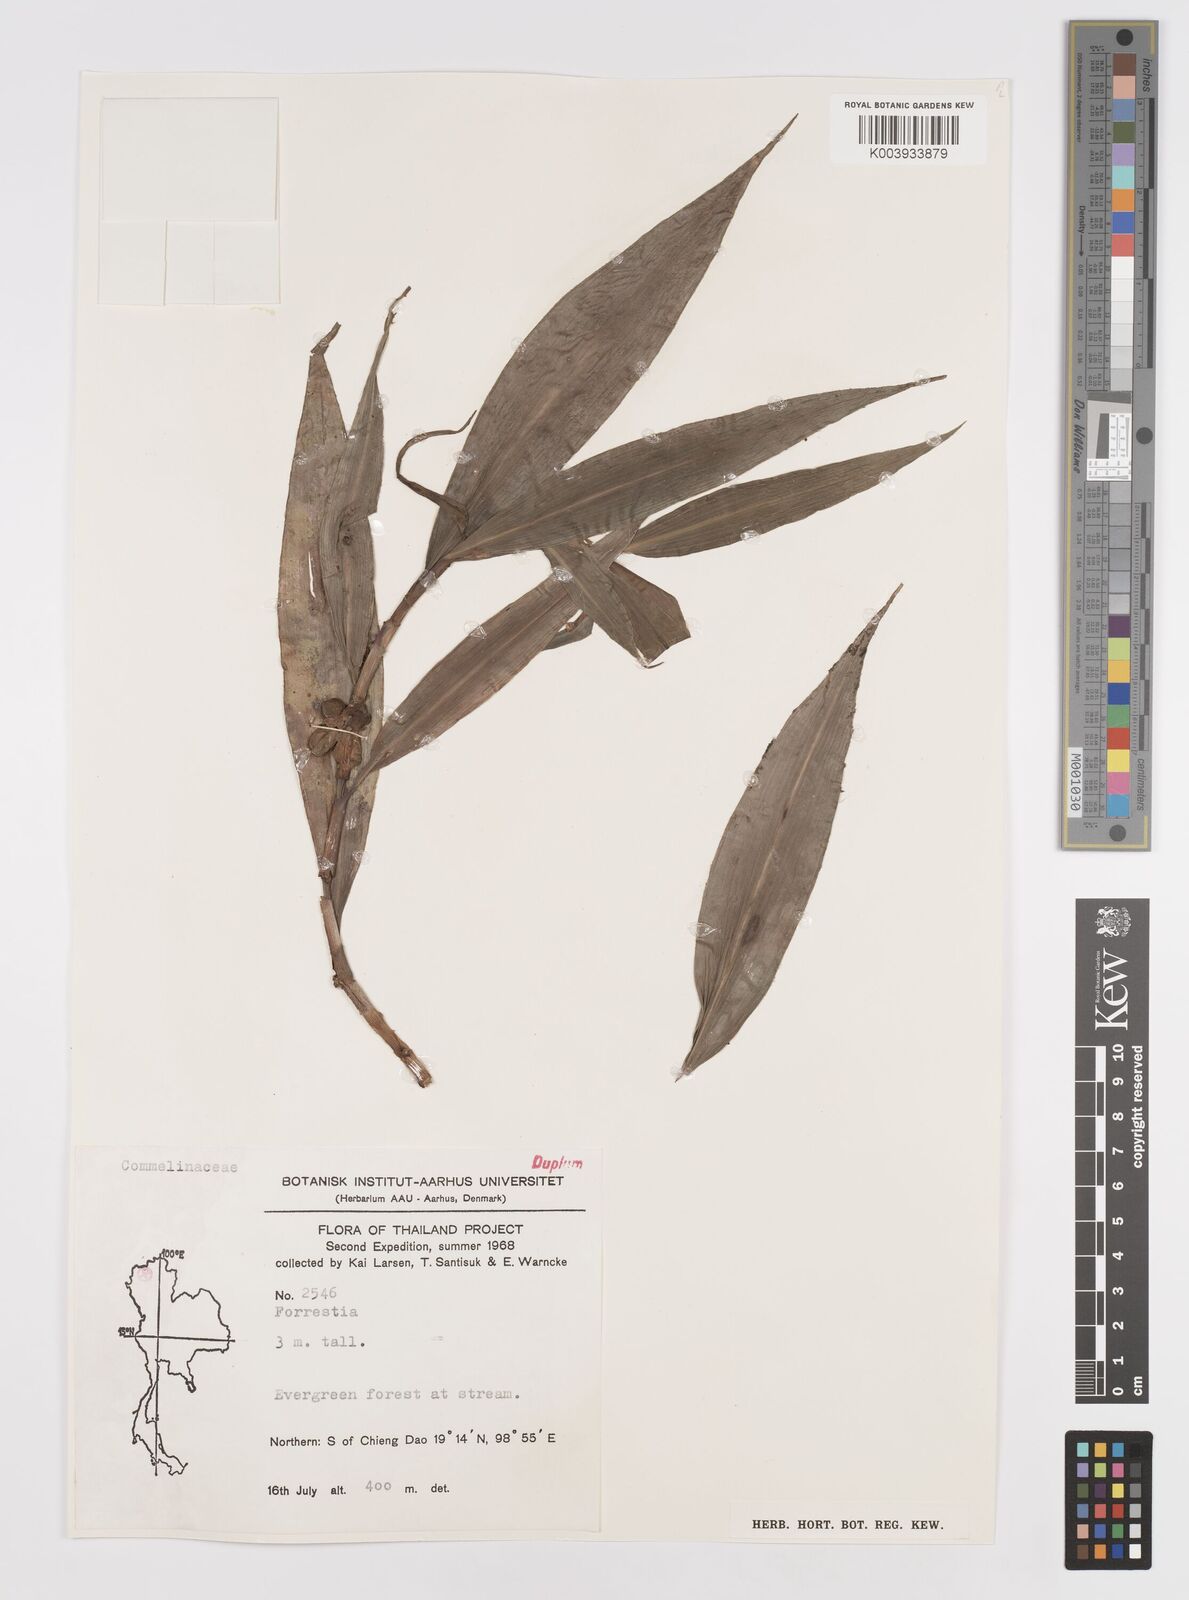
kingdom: Plantae
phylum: Tracheophyta
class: Liliopsida
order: Commelinales
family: Commelinaceae
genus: Amischotolype
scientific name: Amischotolype
